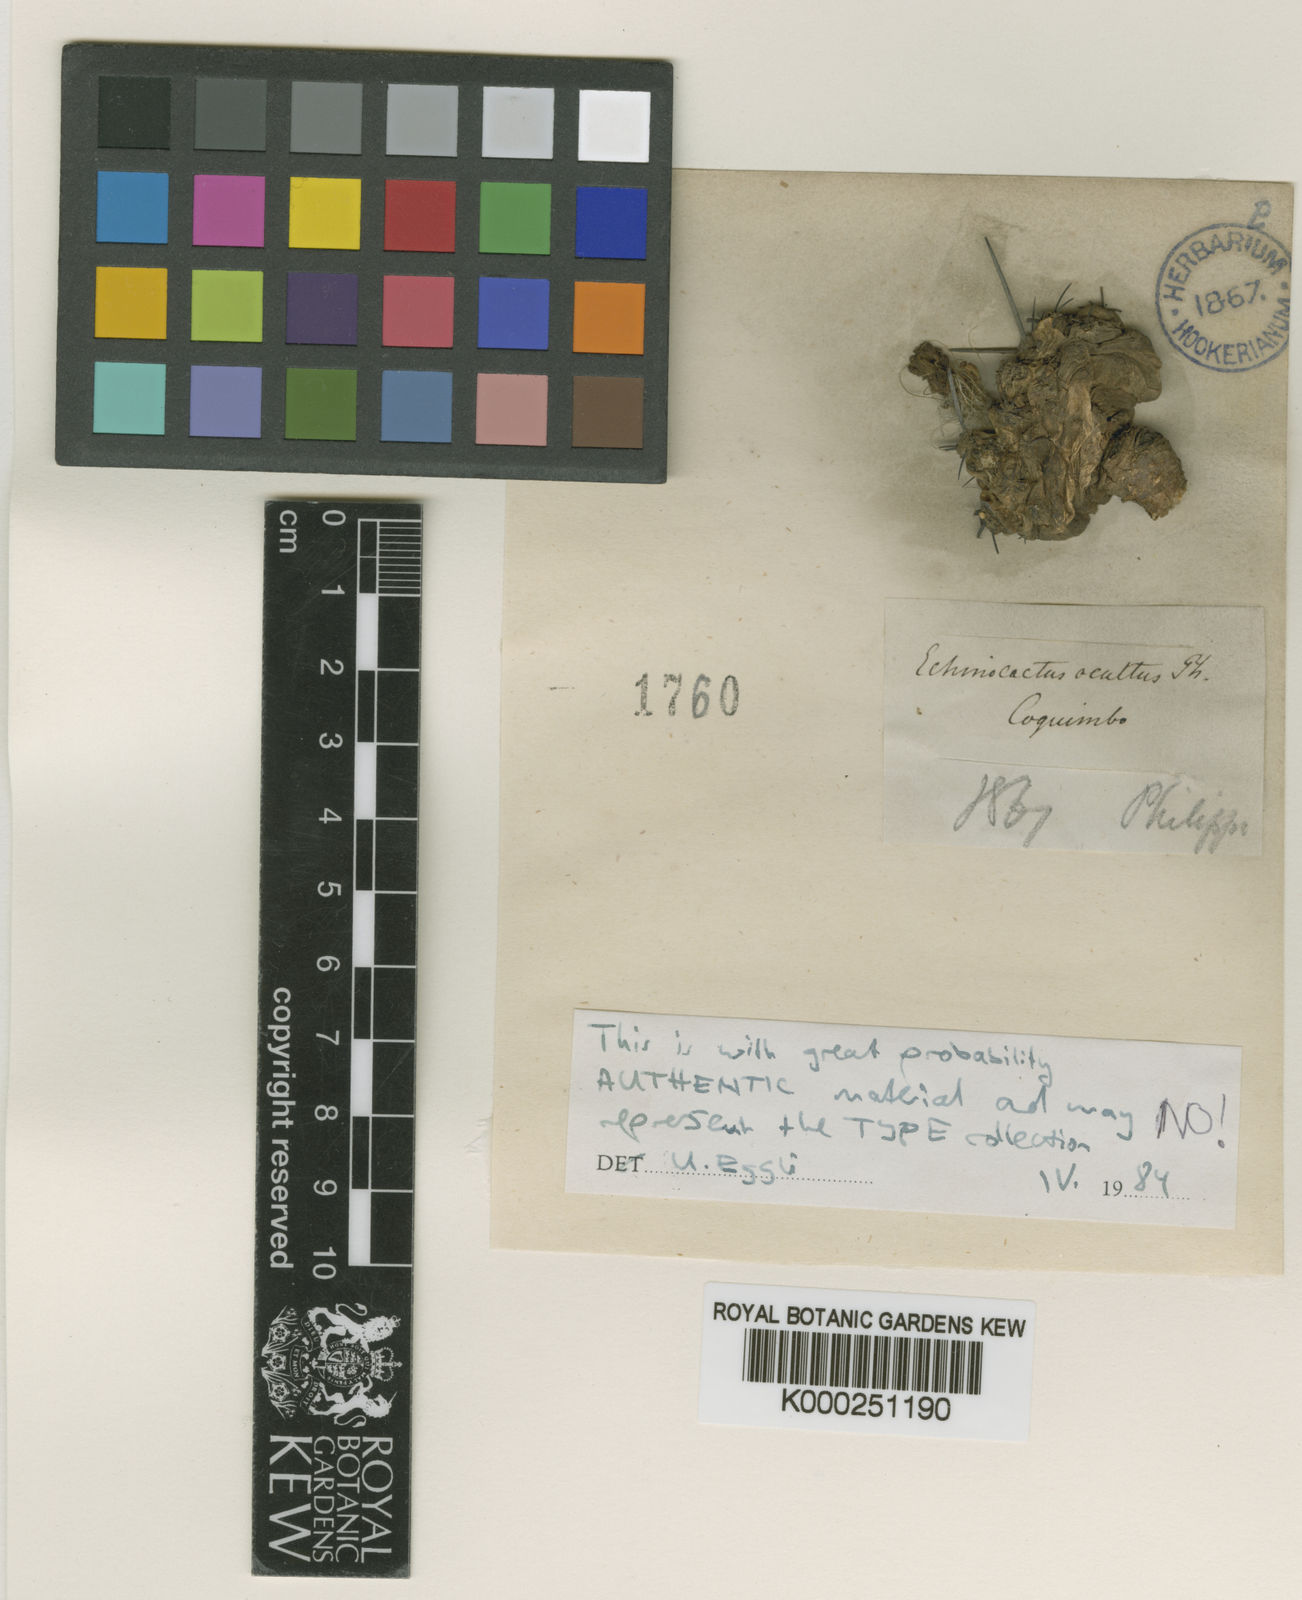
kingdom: Plantae
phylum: Tracheophyta
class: Magnoliopsida
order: Caryophyllales
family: Cactaceae
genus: Eriosyce
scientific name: Eriosyce heinrichiana
